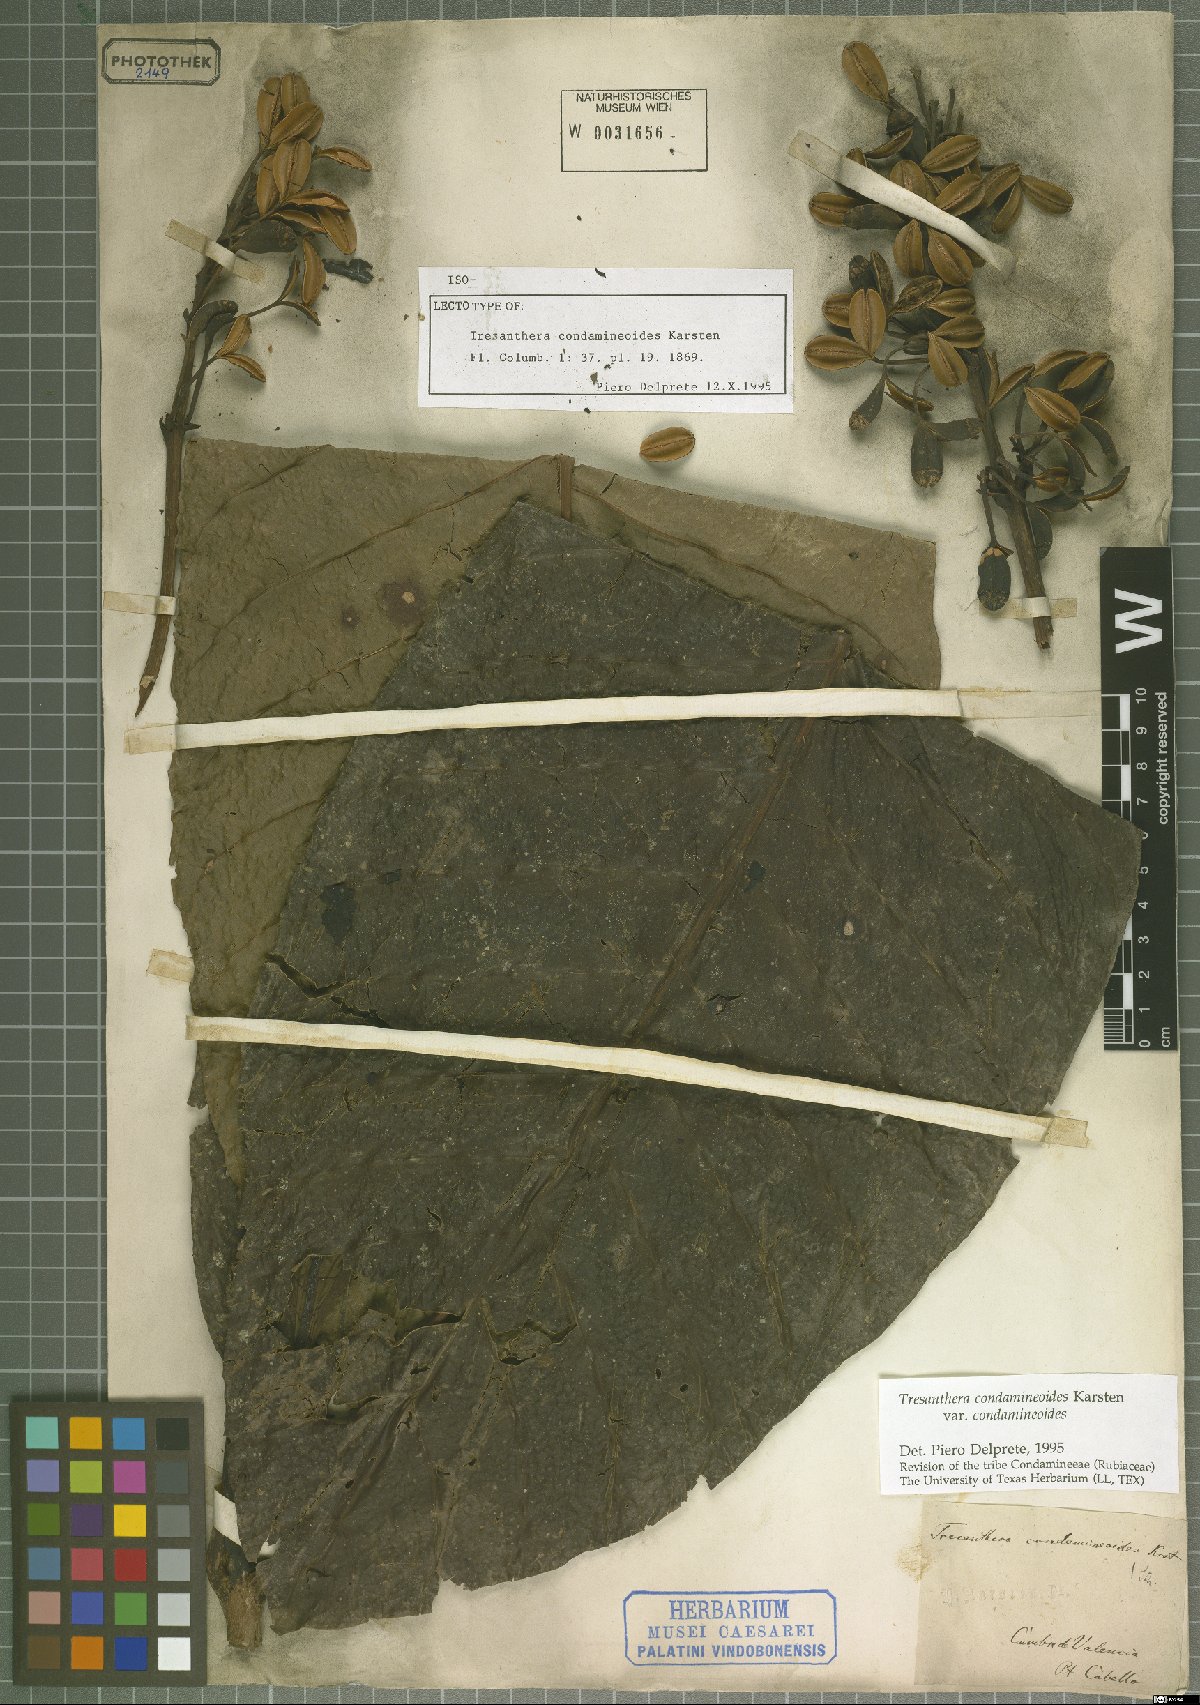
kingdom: Plantae
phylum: Tracheophyta
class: Magnoliopsida
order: Gentianales
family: Rubiaceae
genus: Rustia
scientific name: Rustia condamineoides
